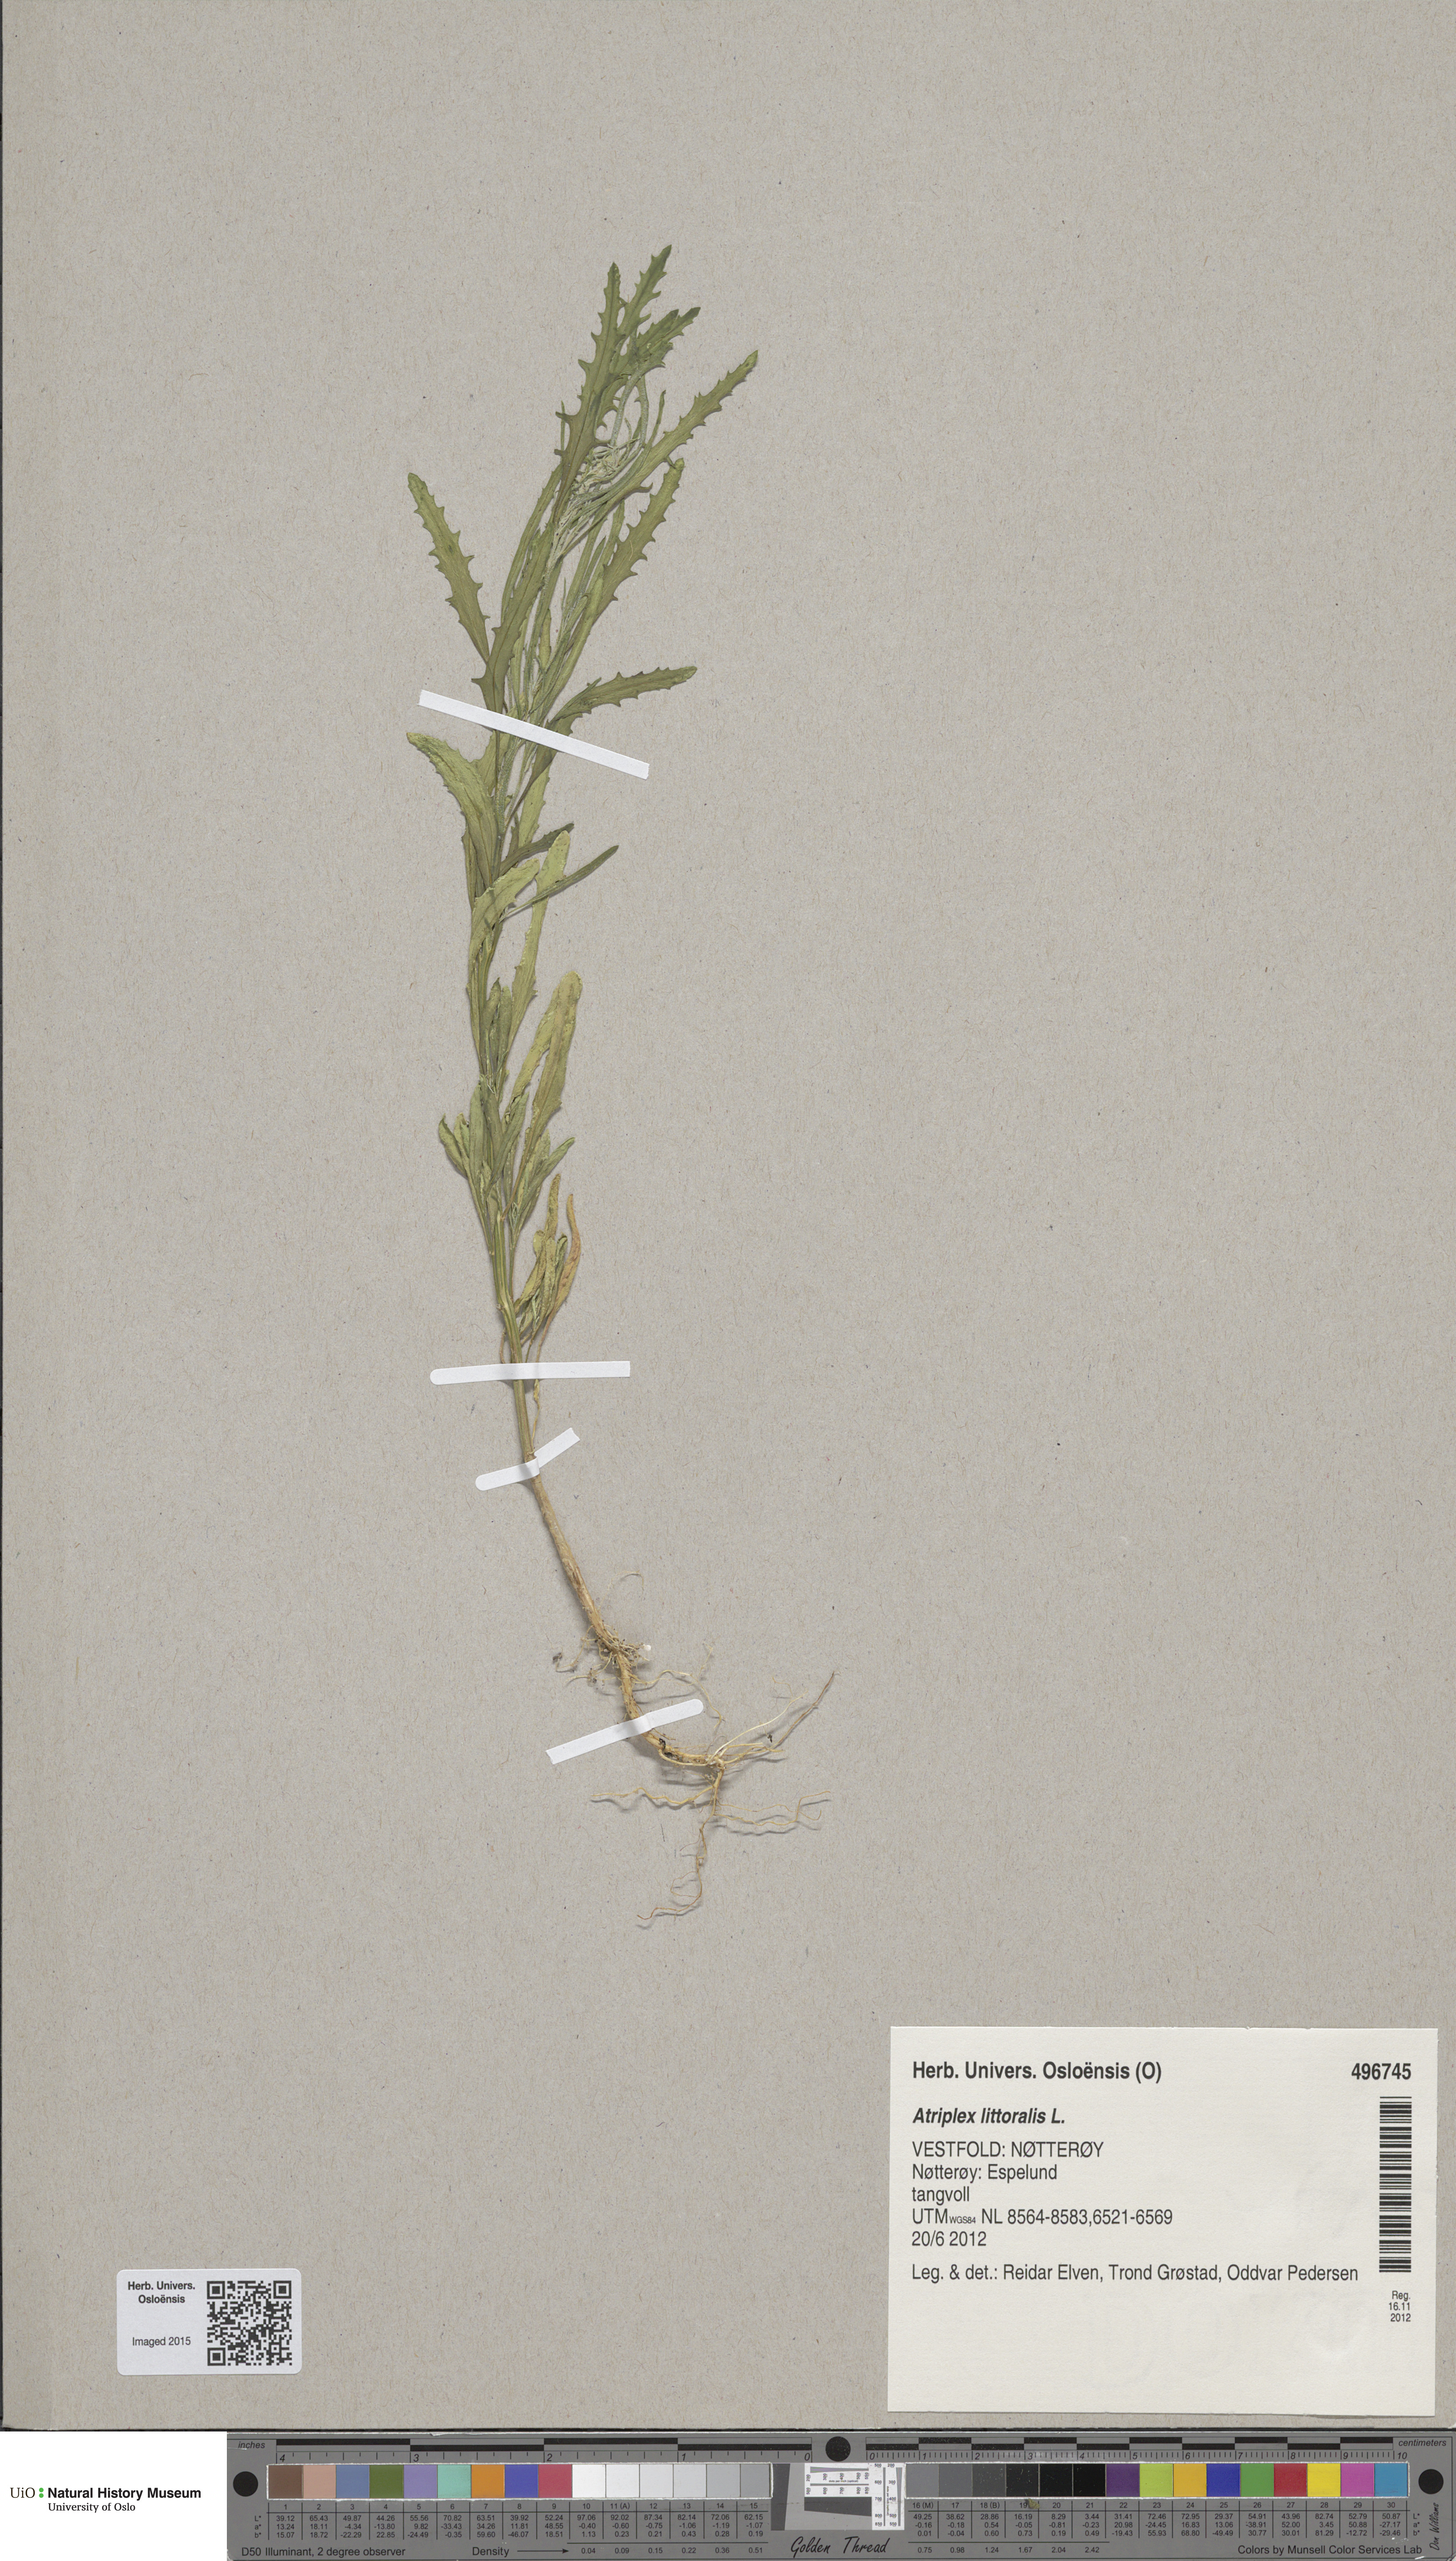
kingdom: Plantae
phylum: Tracheophyta
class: Magnoliopsida
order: Caryophyllales
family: Amaranthaceae
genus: Atriplex
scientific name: Atriplex littoralis
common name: Grass-leaved orache
